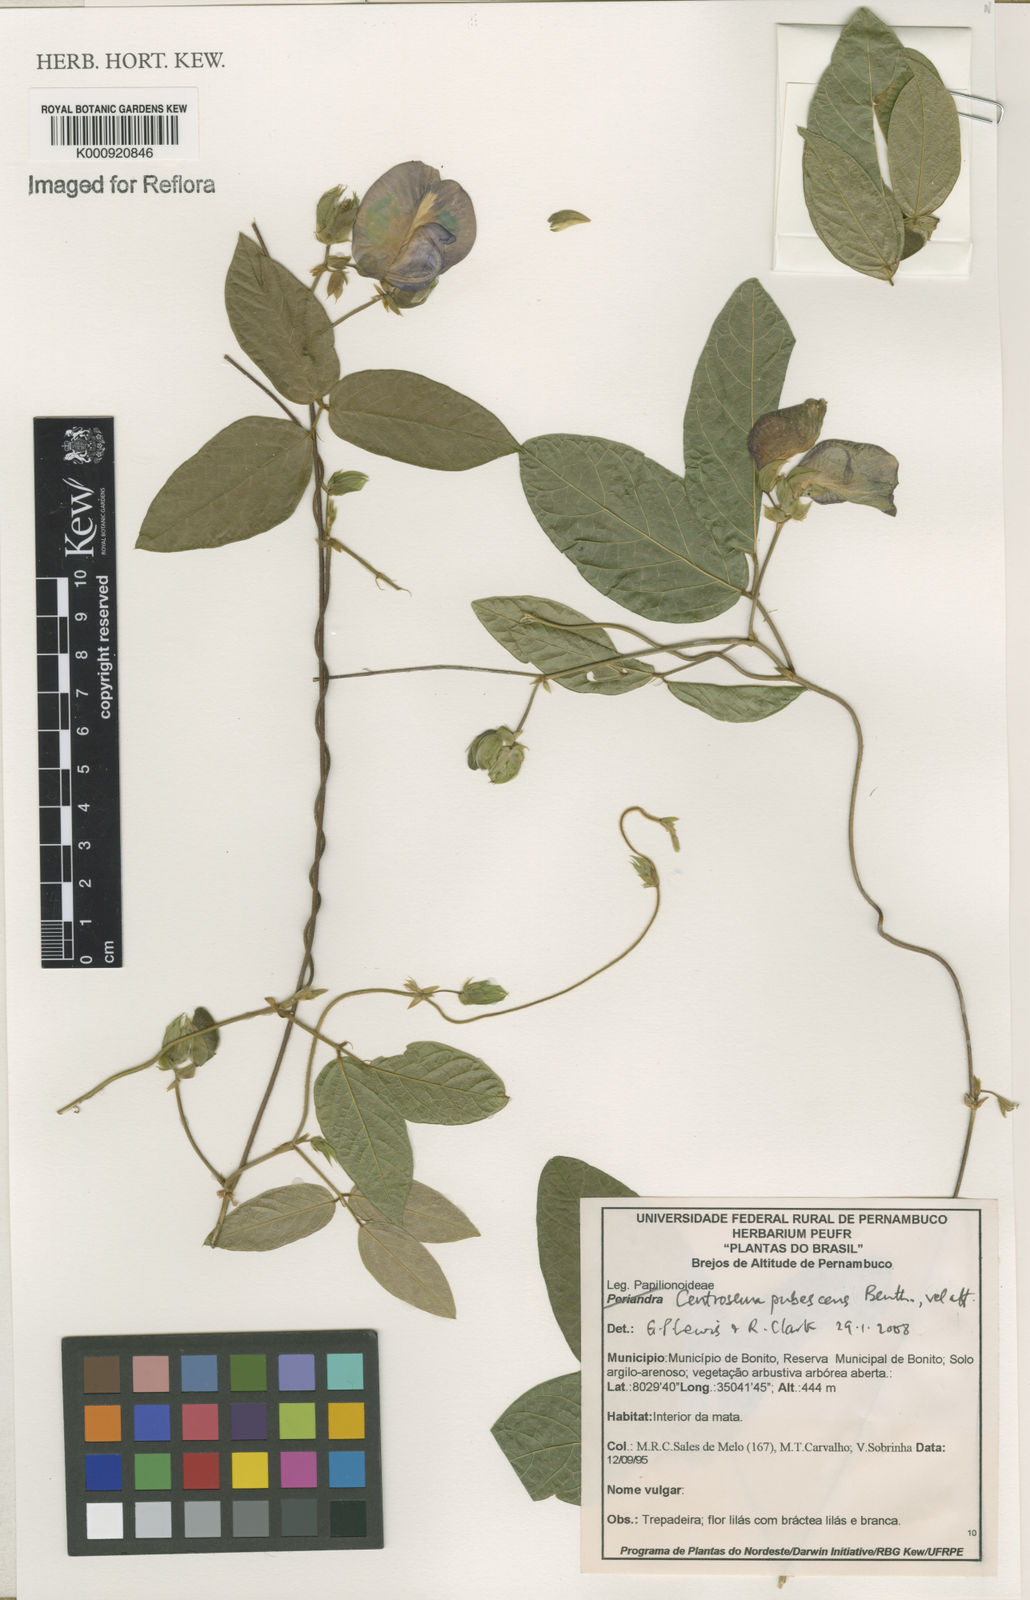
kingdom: Plantae
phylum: Tracheophyta
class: Magnoliopsida
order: Fabales
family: Fabaceae
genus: Centrosema
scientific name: Centrosema pubescens
